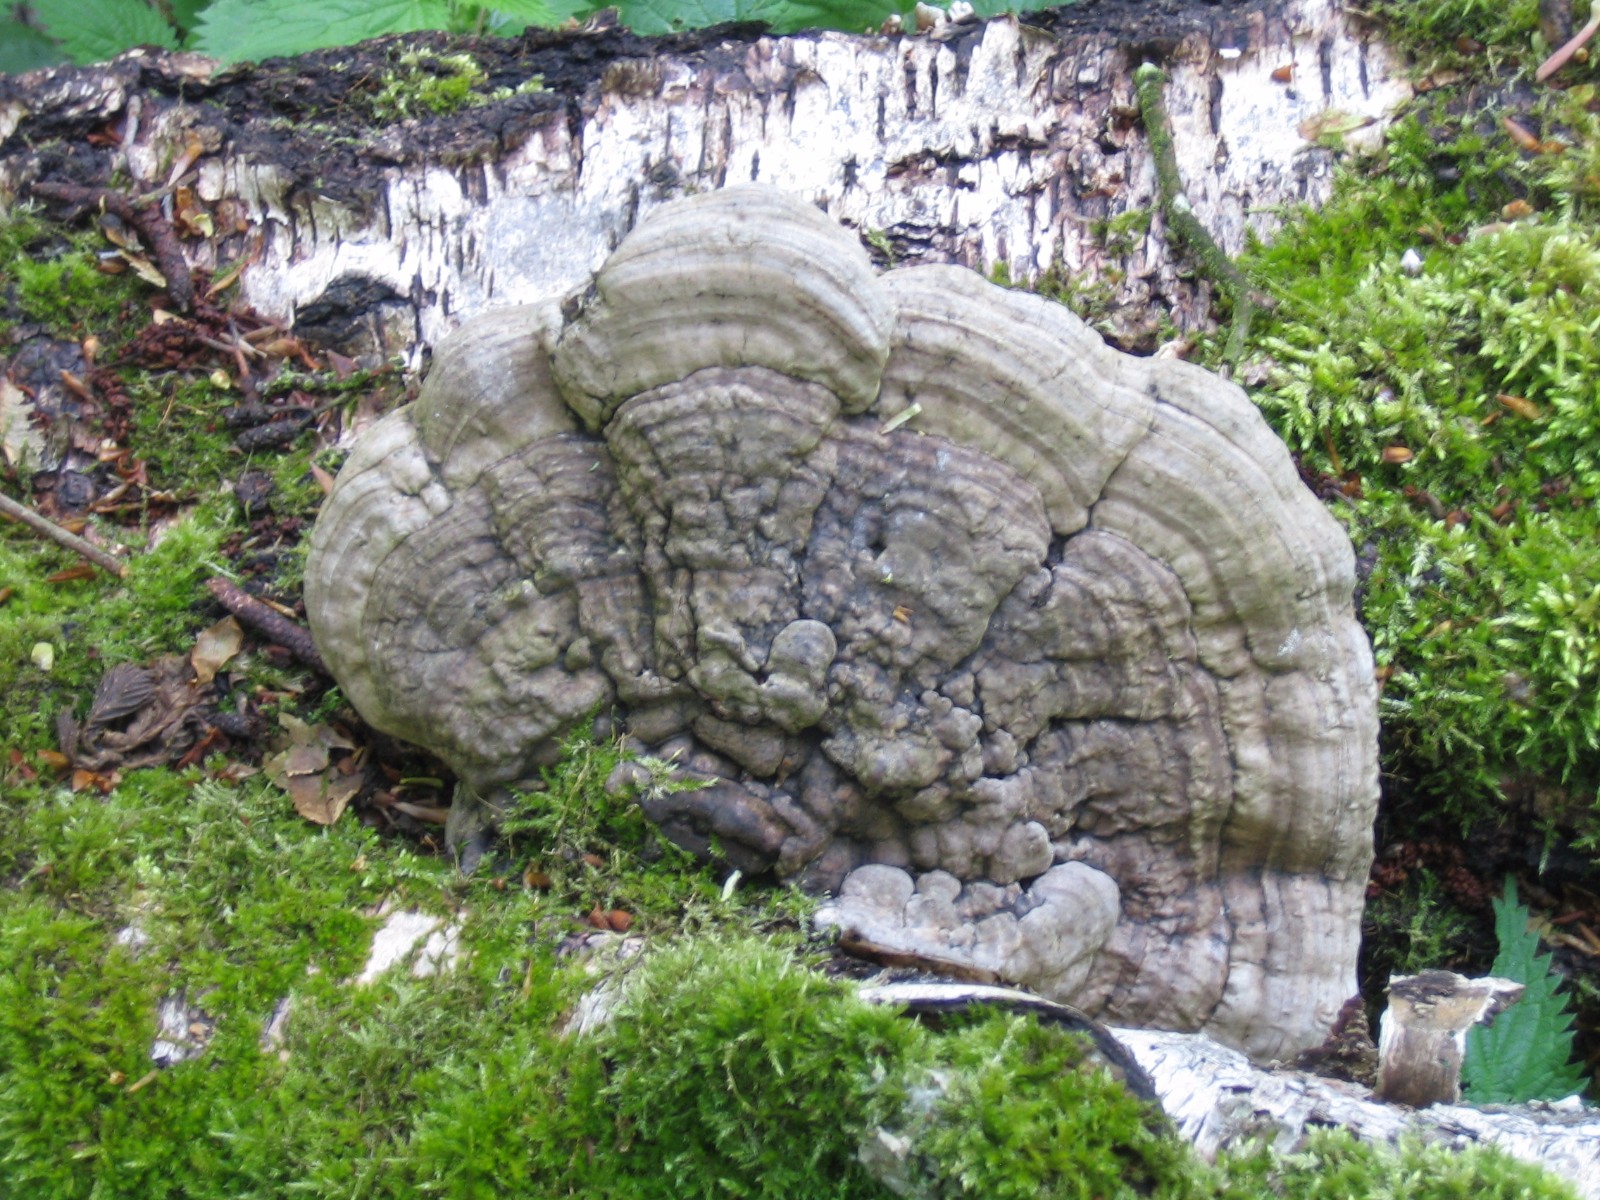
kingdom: Fungi
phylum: Basidiomycota
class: Agaricomycetes
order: Polyporales
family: Polyporaceae
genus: Ganoderma
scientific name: Ganoderma applanatum
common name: flad lakporesvamp
